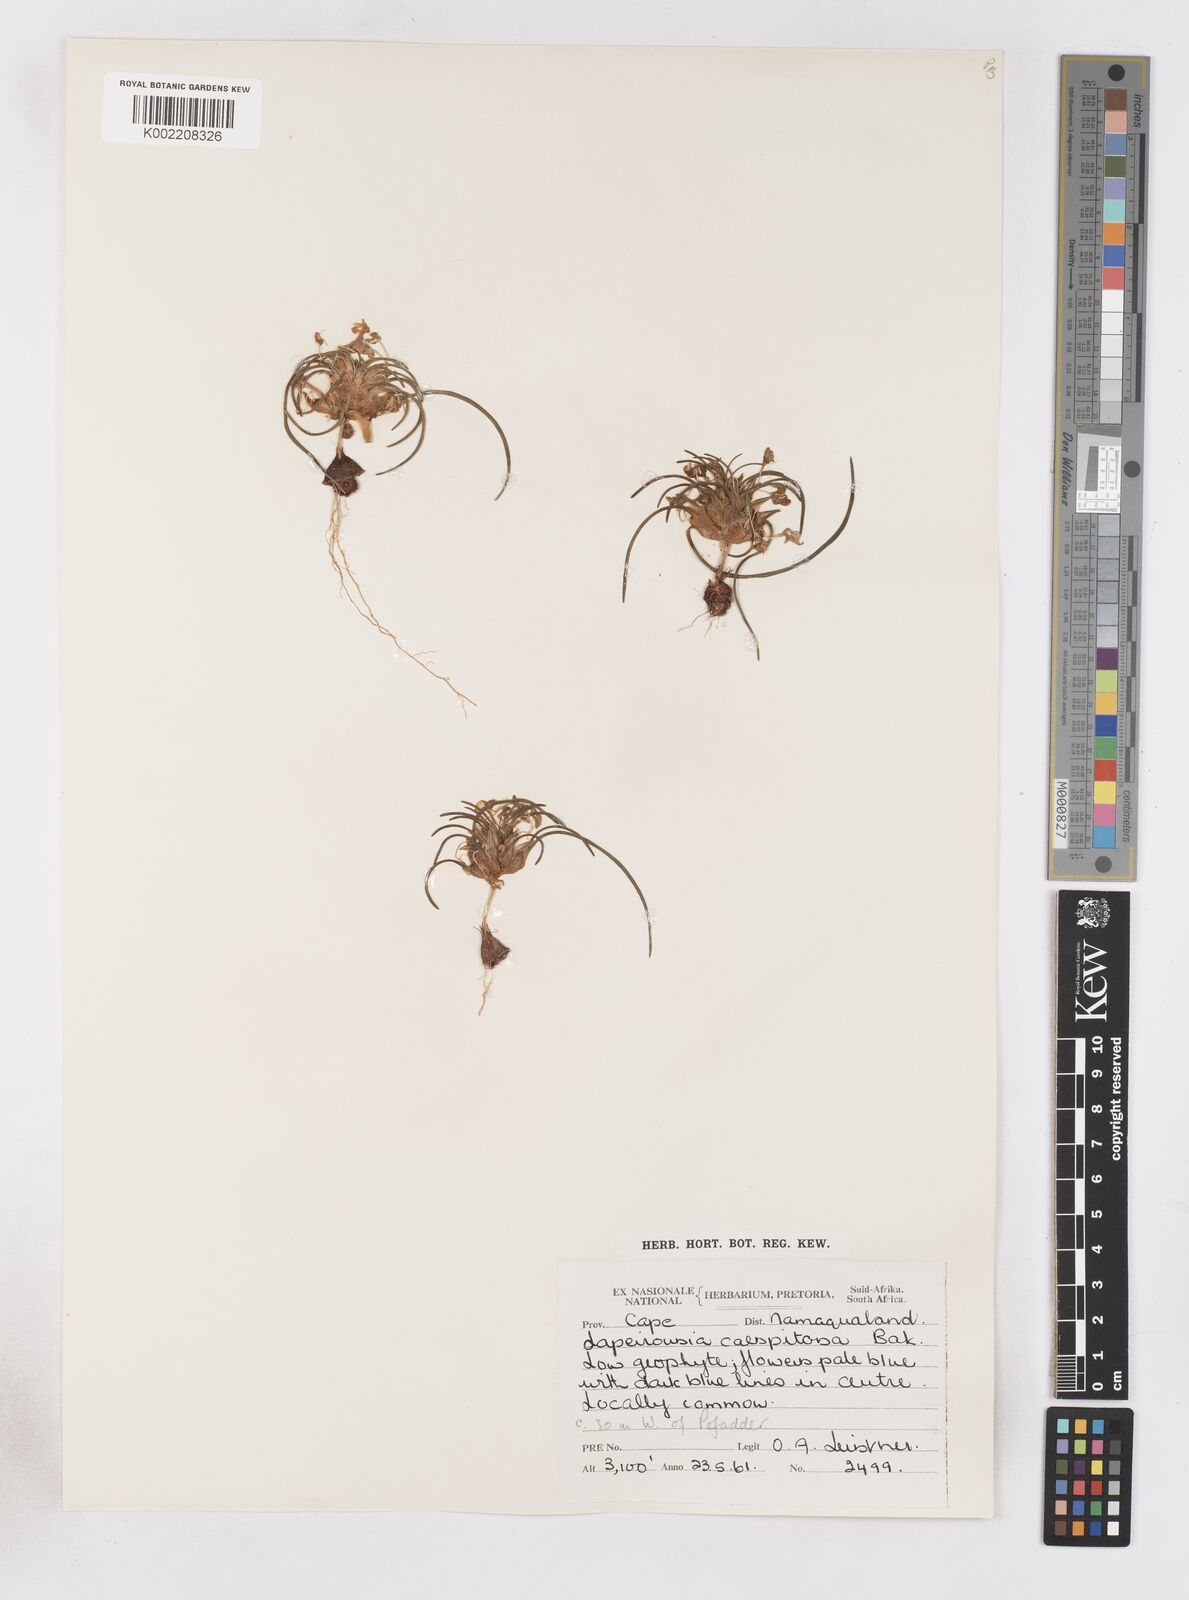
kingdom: Plantae
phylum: Tracheophyta
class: Liliopsida
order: Asparagales
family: Iridaceae
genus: Lapeirousia
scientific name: Lapeirousia plicata
